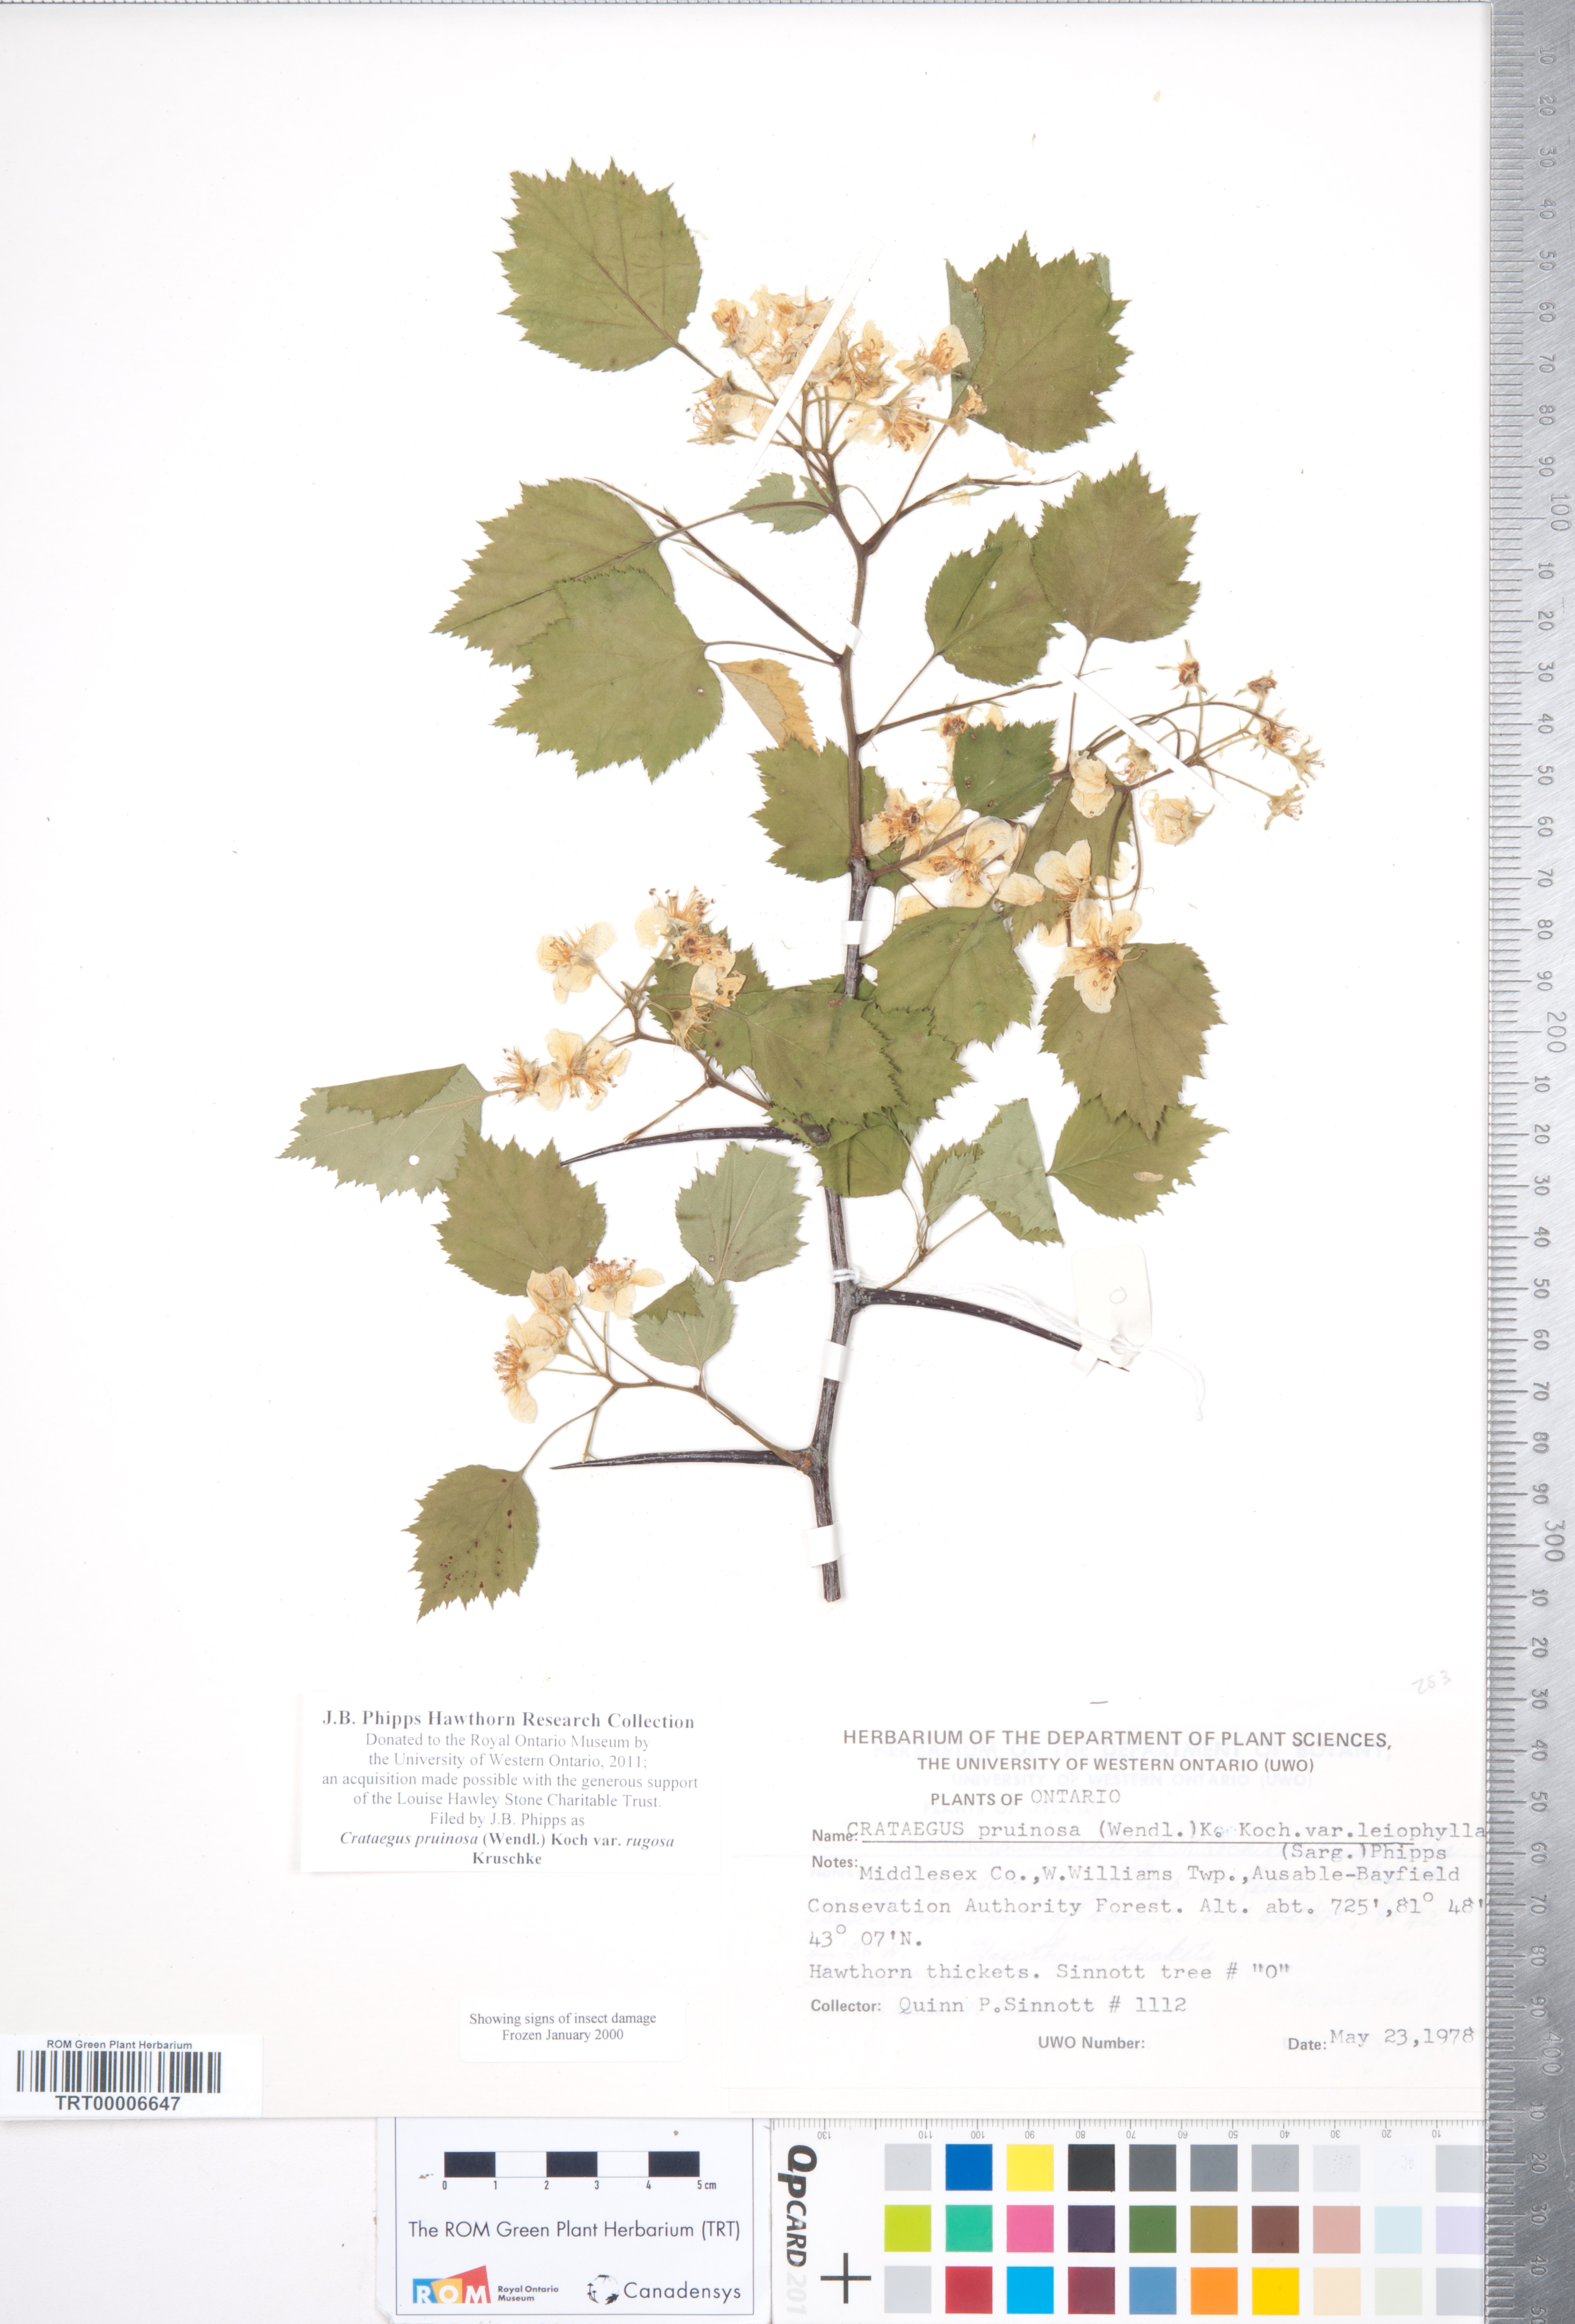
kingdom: Plantae
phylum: Tracheophyta
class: Magnoliopsida
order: Rosales
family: Rosaceae
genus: Crataegus
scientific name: Crataegus pruinosa
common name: Waxy-fruit hawthorn
